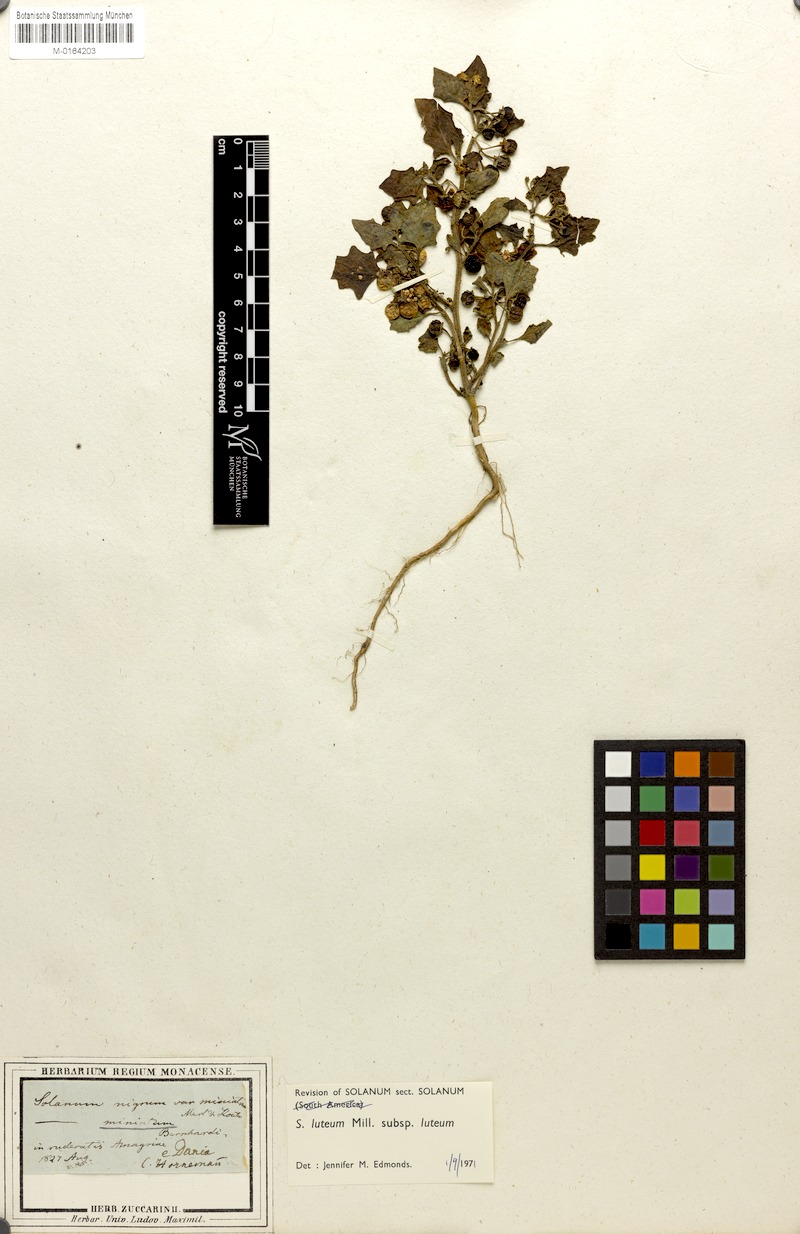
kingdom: Plantae
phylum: Tracheophyta
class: Magnoliopsida
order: Solanales
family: Solanaceae
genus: Solanum
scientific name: Solanum villosum
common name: Red nightshade
